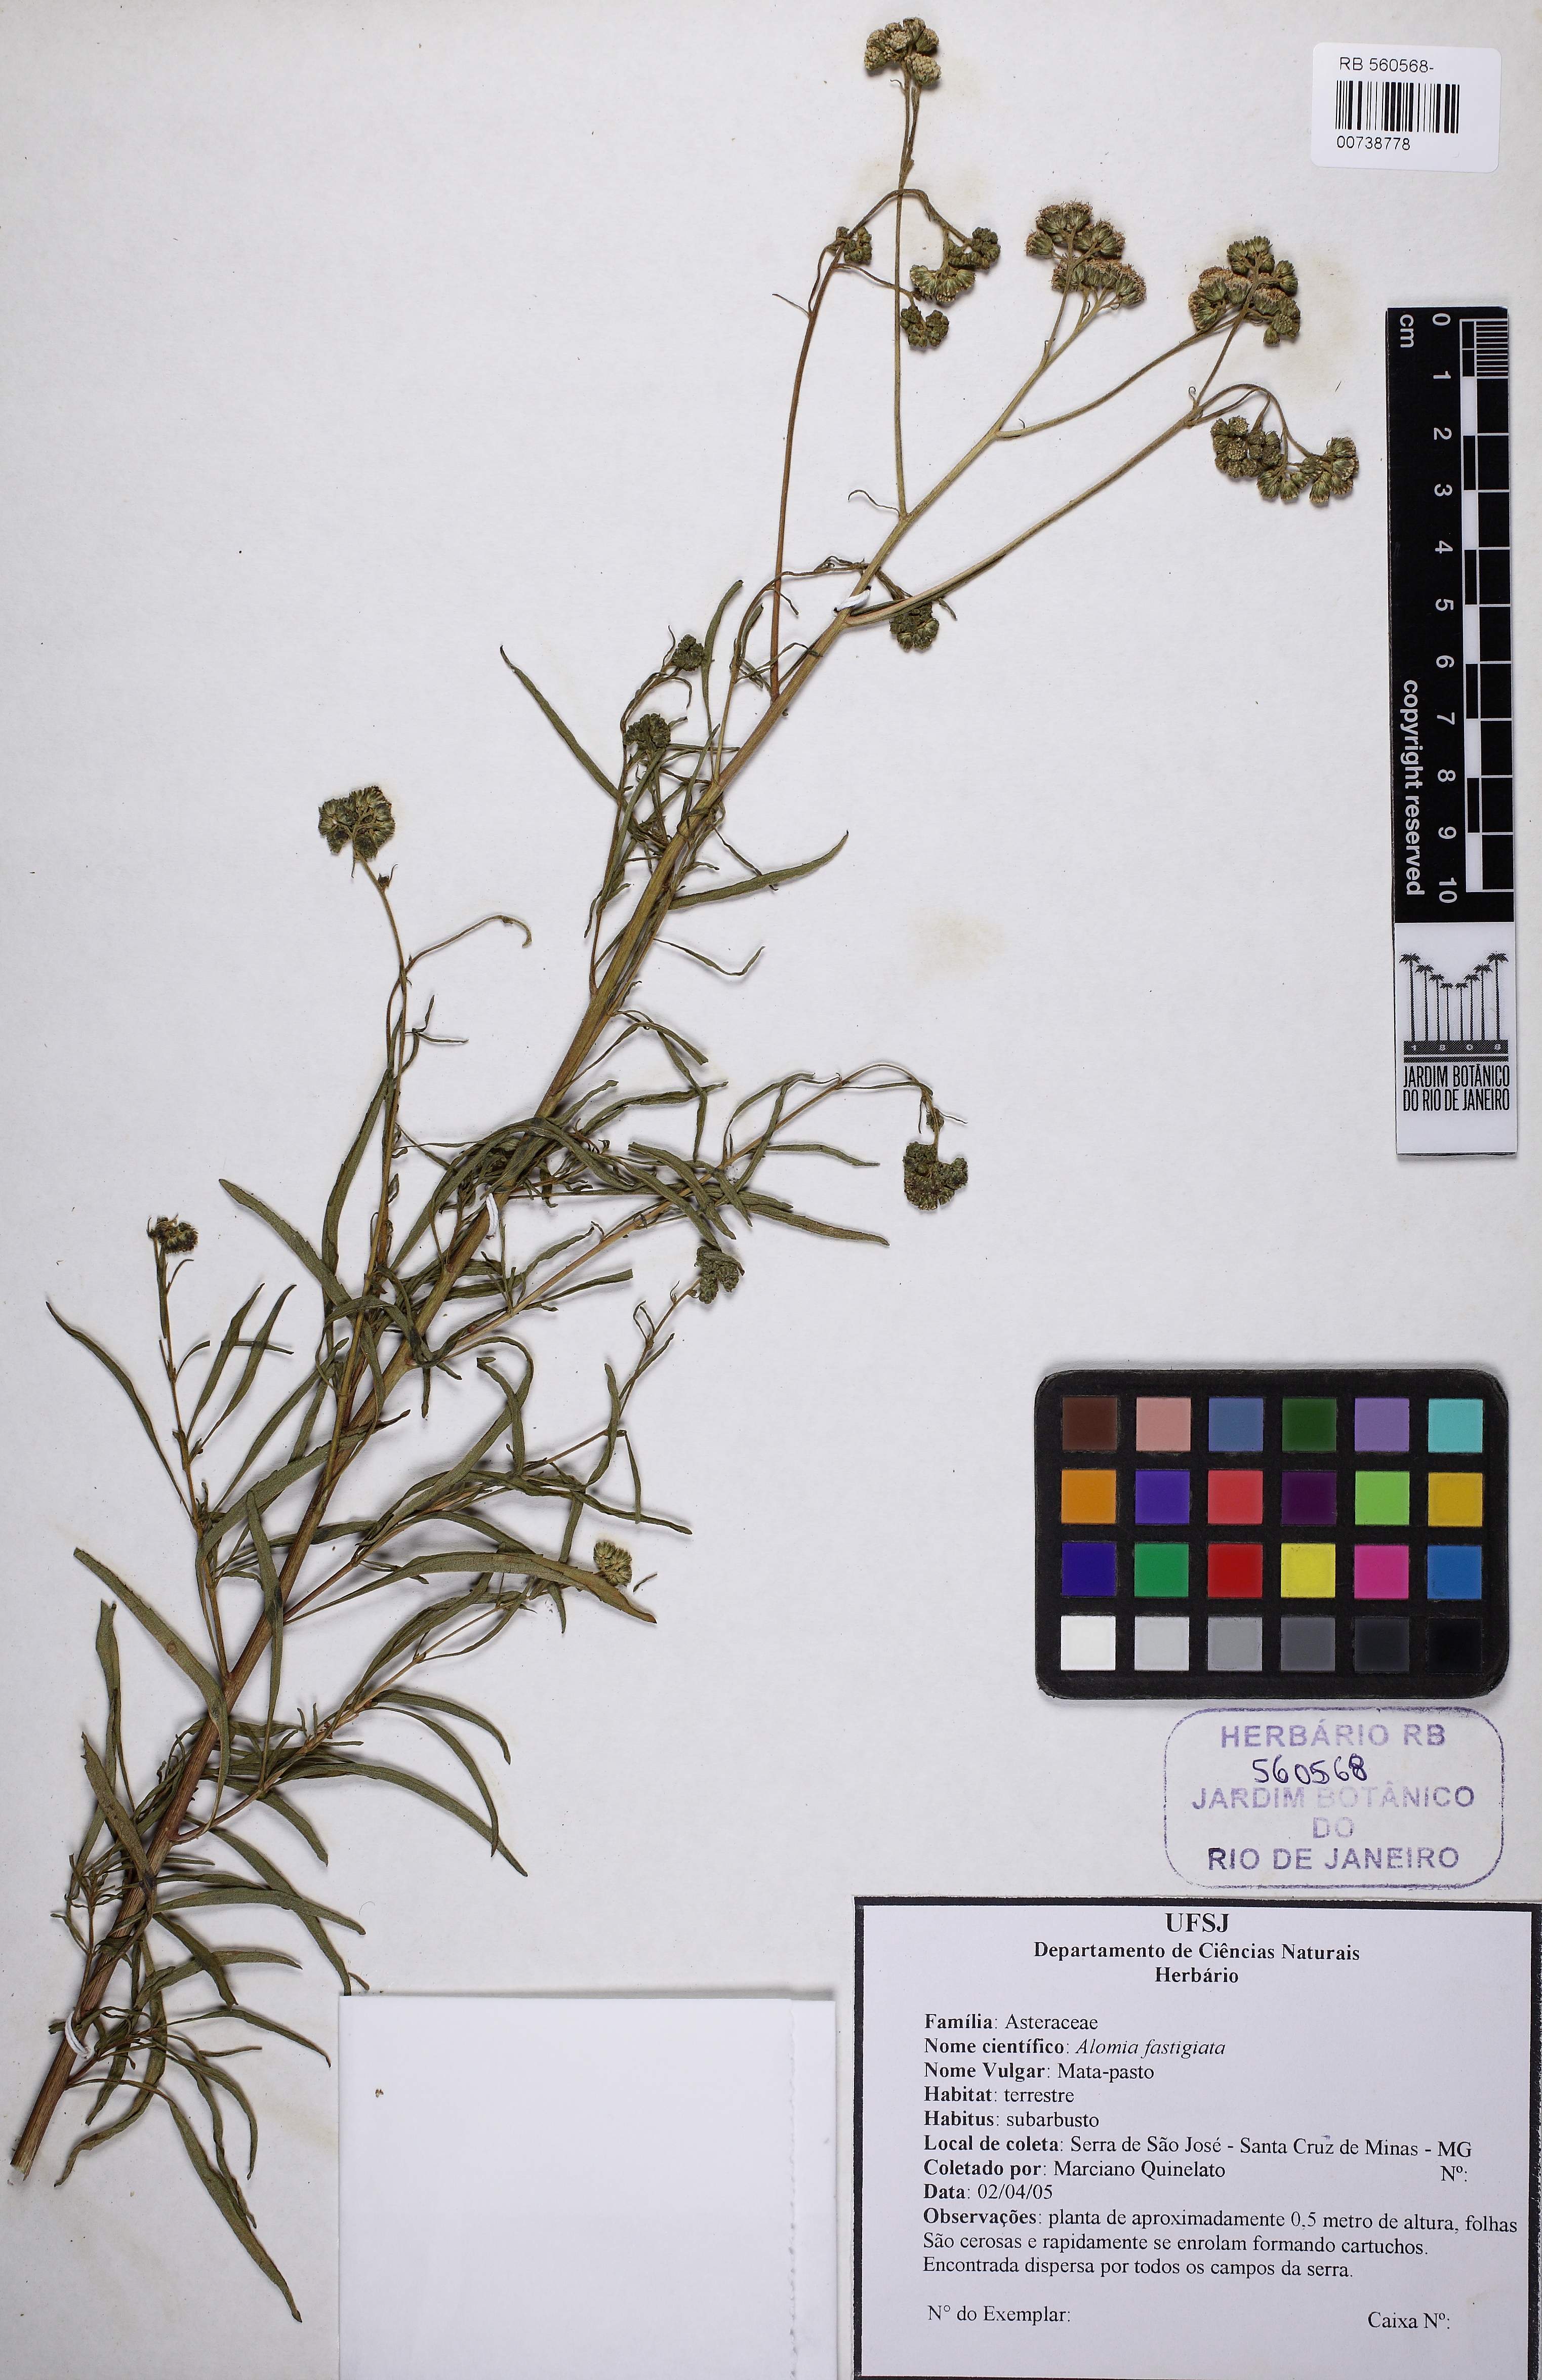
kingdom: Plantae
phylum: Tracheophyta
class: Magnoliopsida
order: Asterales
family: Asteraceae
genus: Ageratum
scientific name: Ageratum fastigiatum
